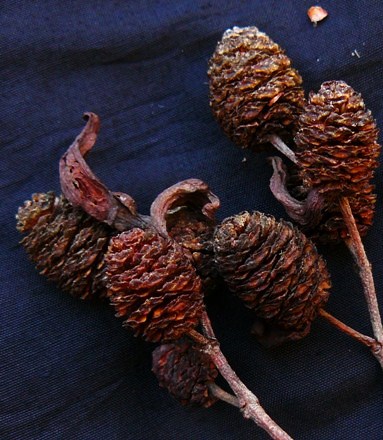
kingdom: Fungi
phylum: Ascomycota
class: Taphrinomycetes
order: Taphrinales
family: Taphrinaceae
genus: Taphrina
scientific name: Taphrina alni
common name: Alder tongue
